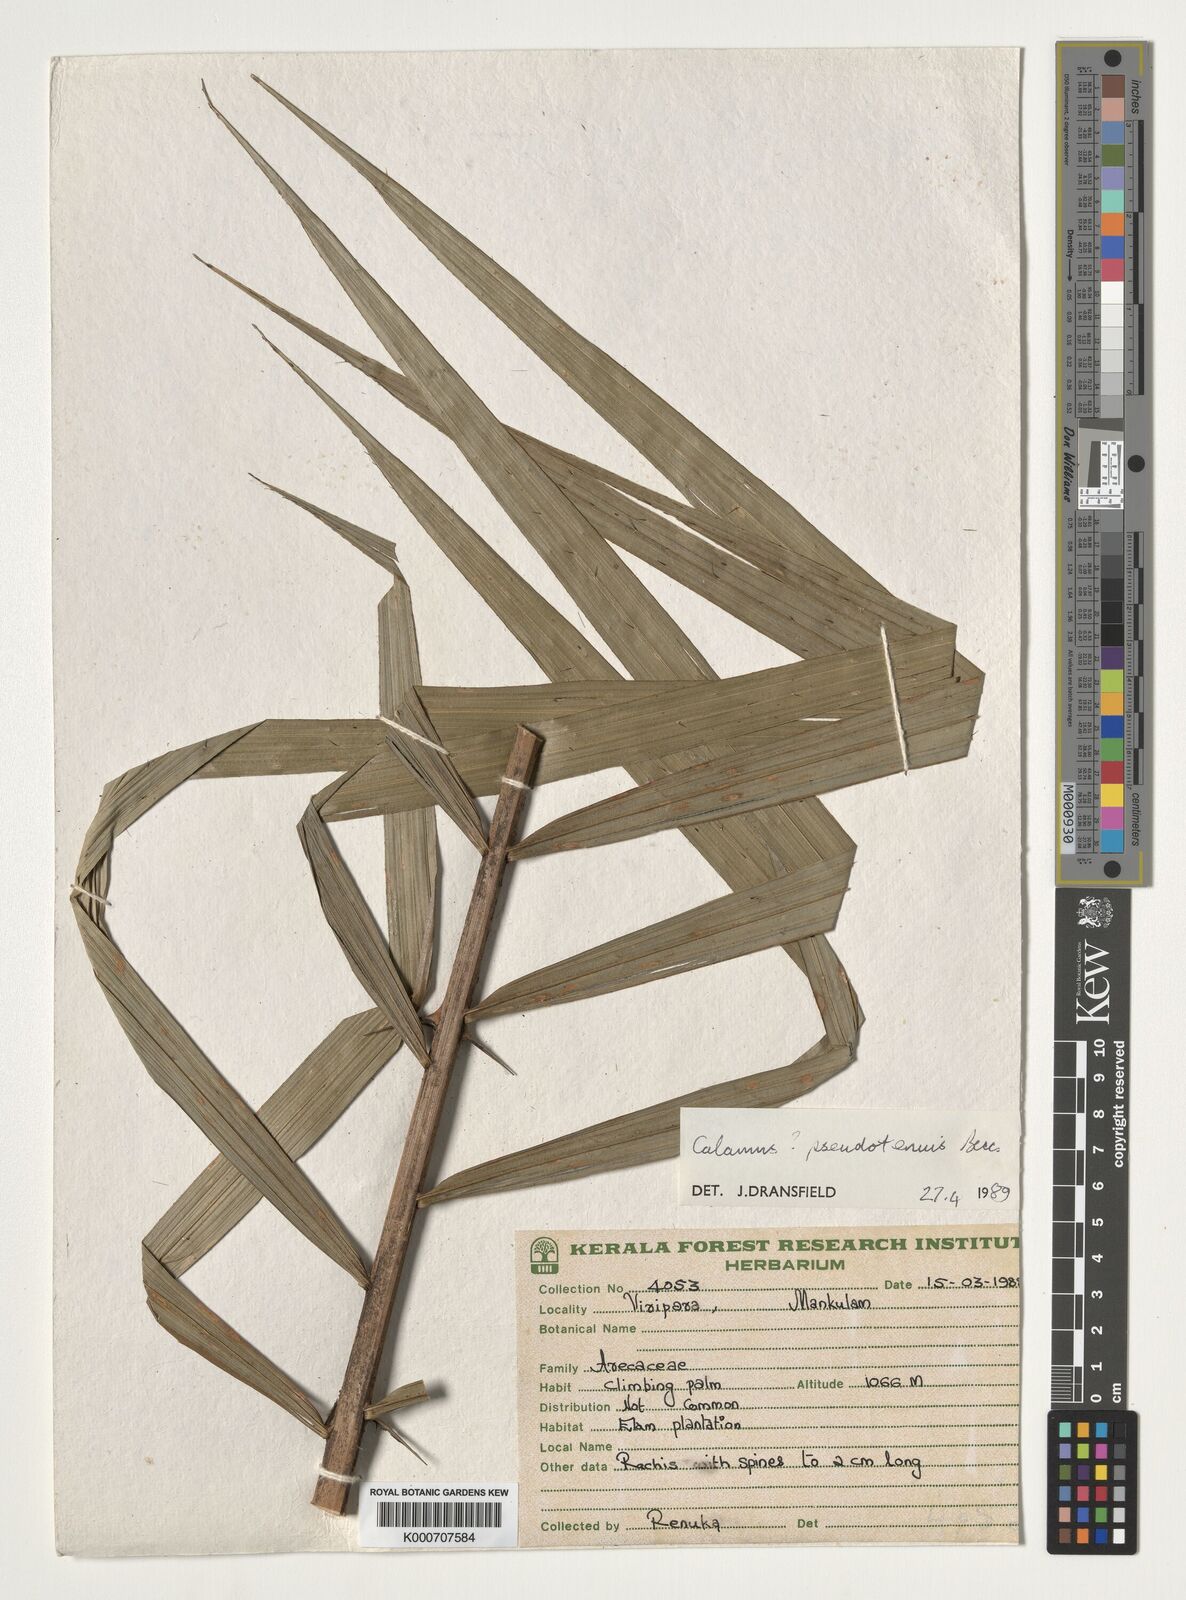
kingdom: Plantae
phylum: Tracheophyta
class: Liliopsida
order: Arecales
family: Arecaceae
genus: Calamus
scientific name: Calamus pseudotenuis
